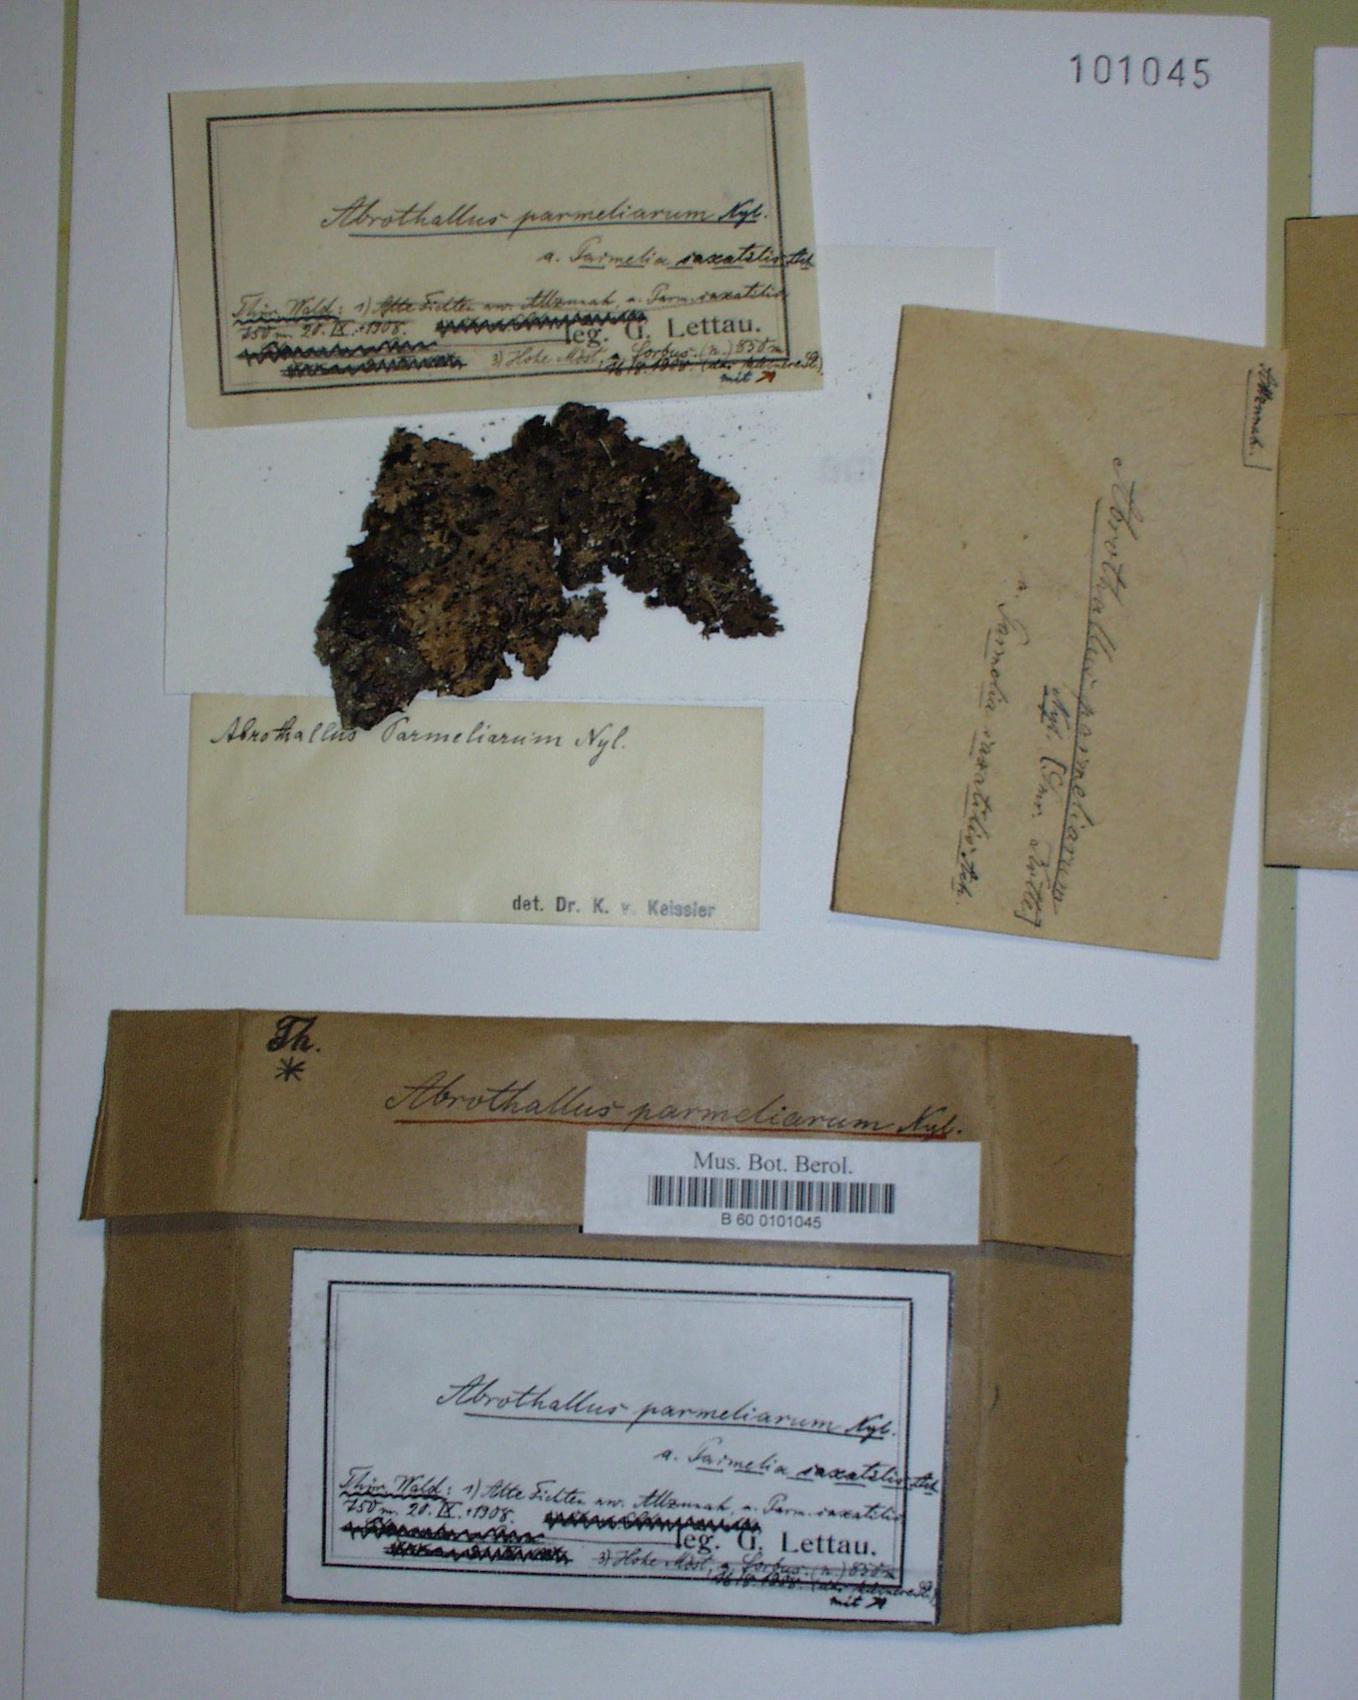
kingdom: Fungi
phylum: Ascomycota
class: Dothideomycetes
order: Abrothallales
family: Abrothallaceae
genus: Abrothallus
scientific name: Abrothallus parmeliarum
